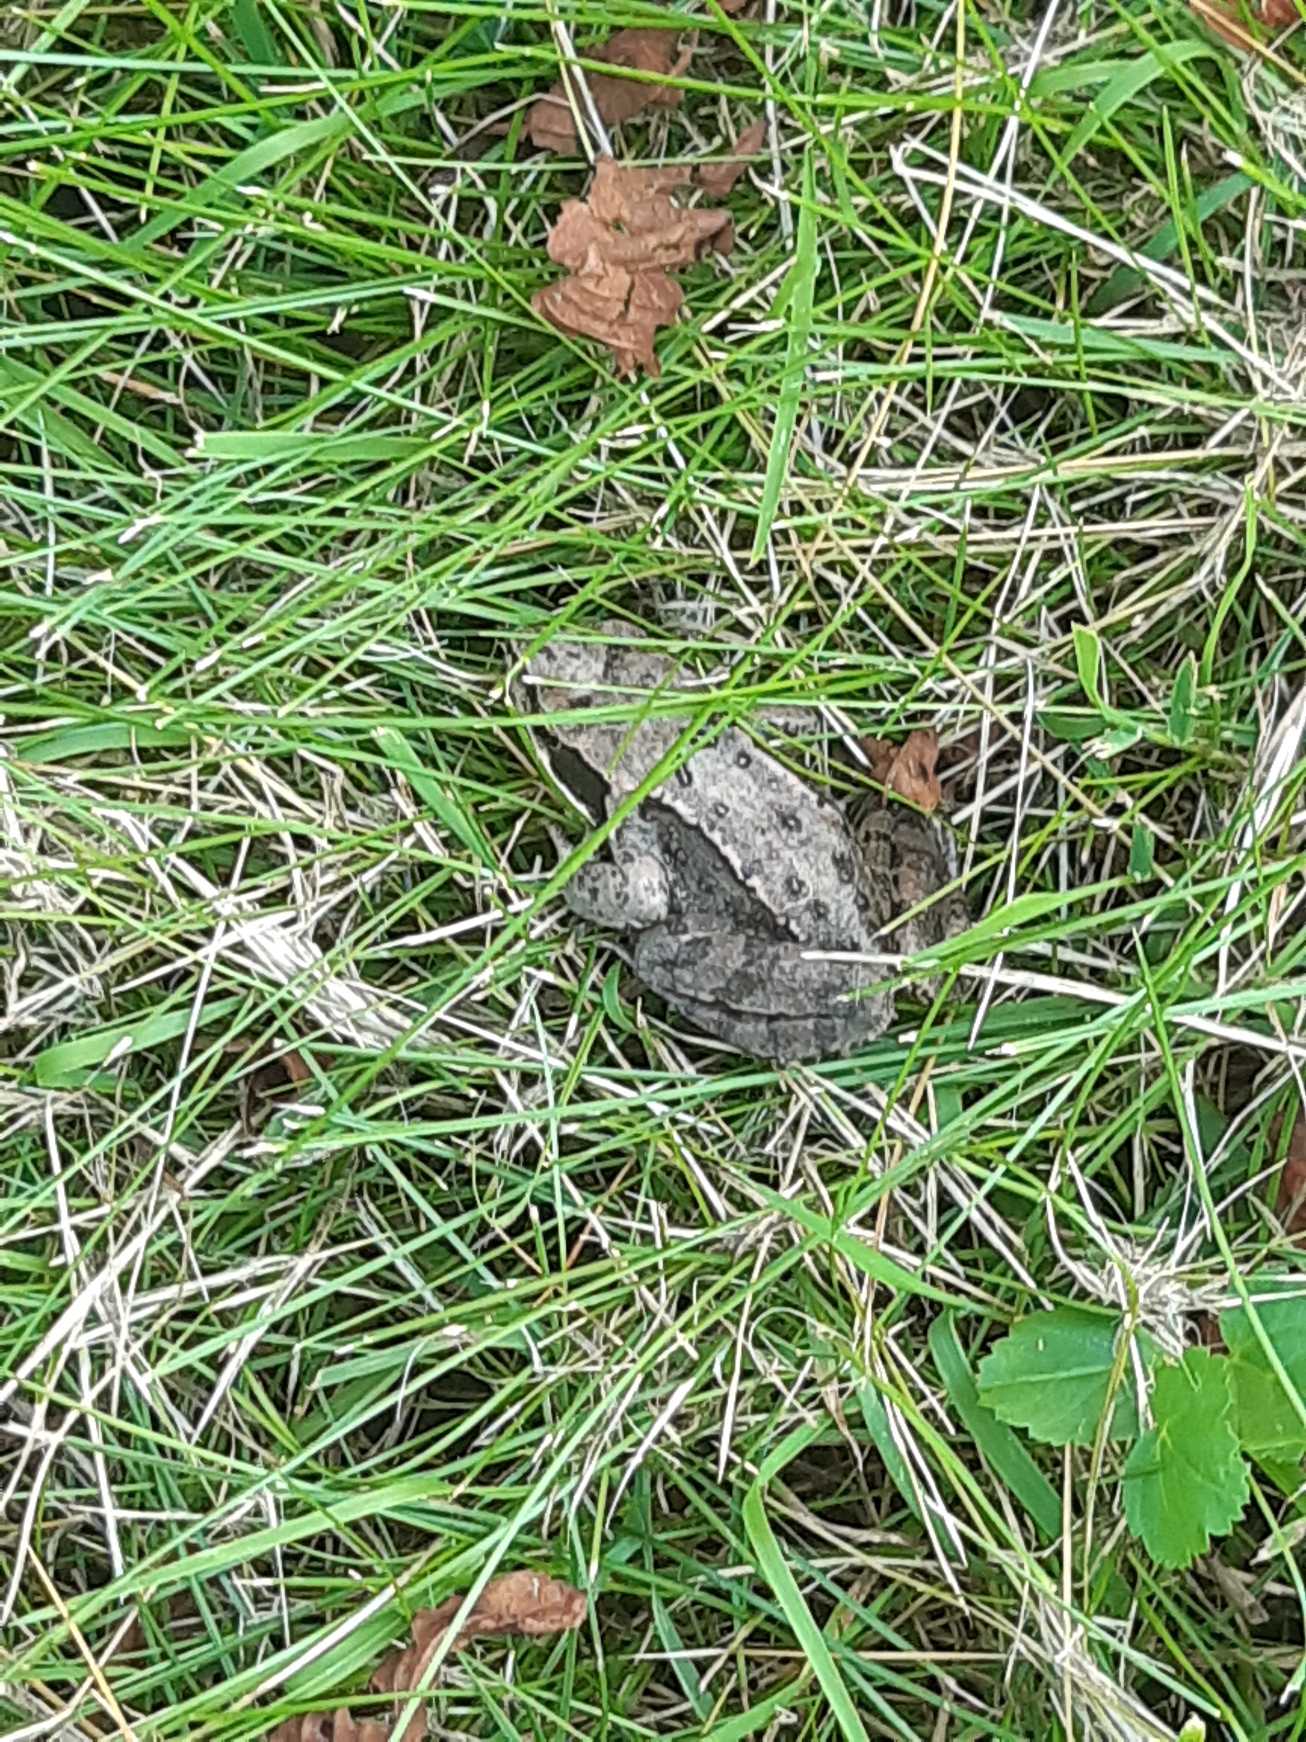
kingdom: Animalia
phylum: Chordata
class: Amphibia
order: Anura
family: Ranidae
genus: Rana
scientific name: Rana temporaria
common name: Butsnudet frø
